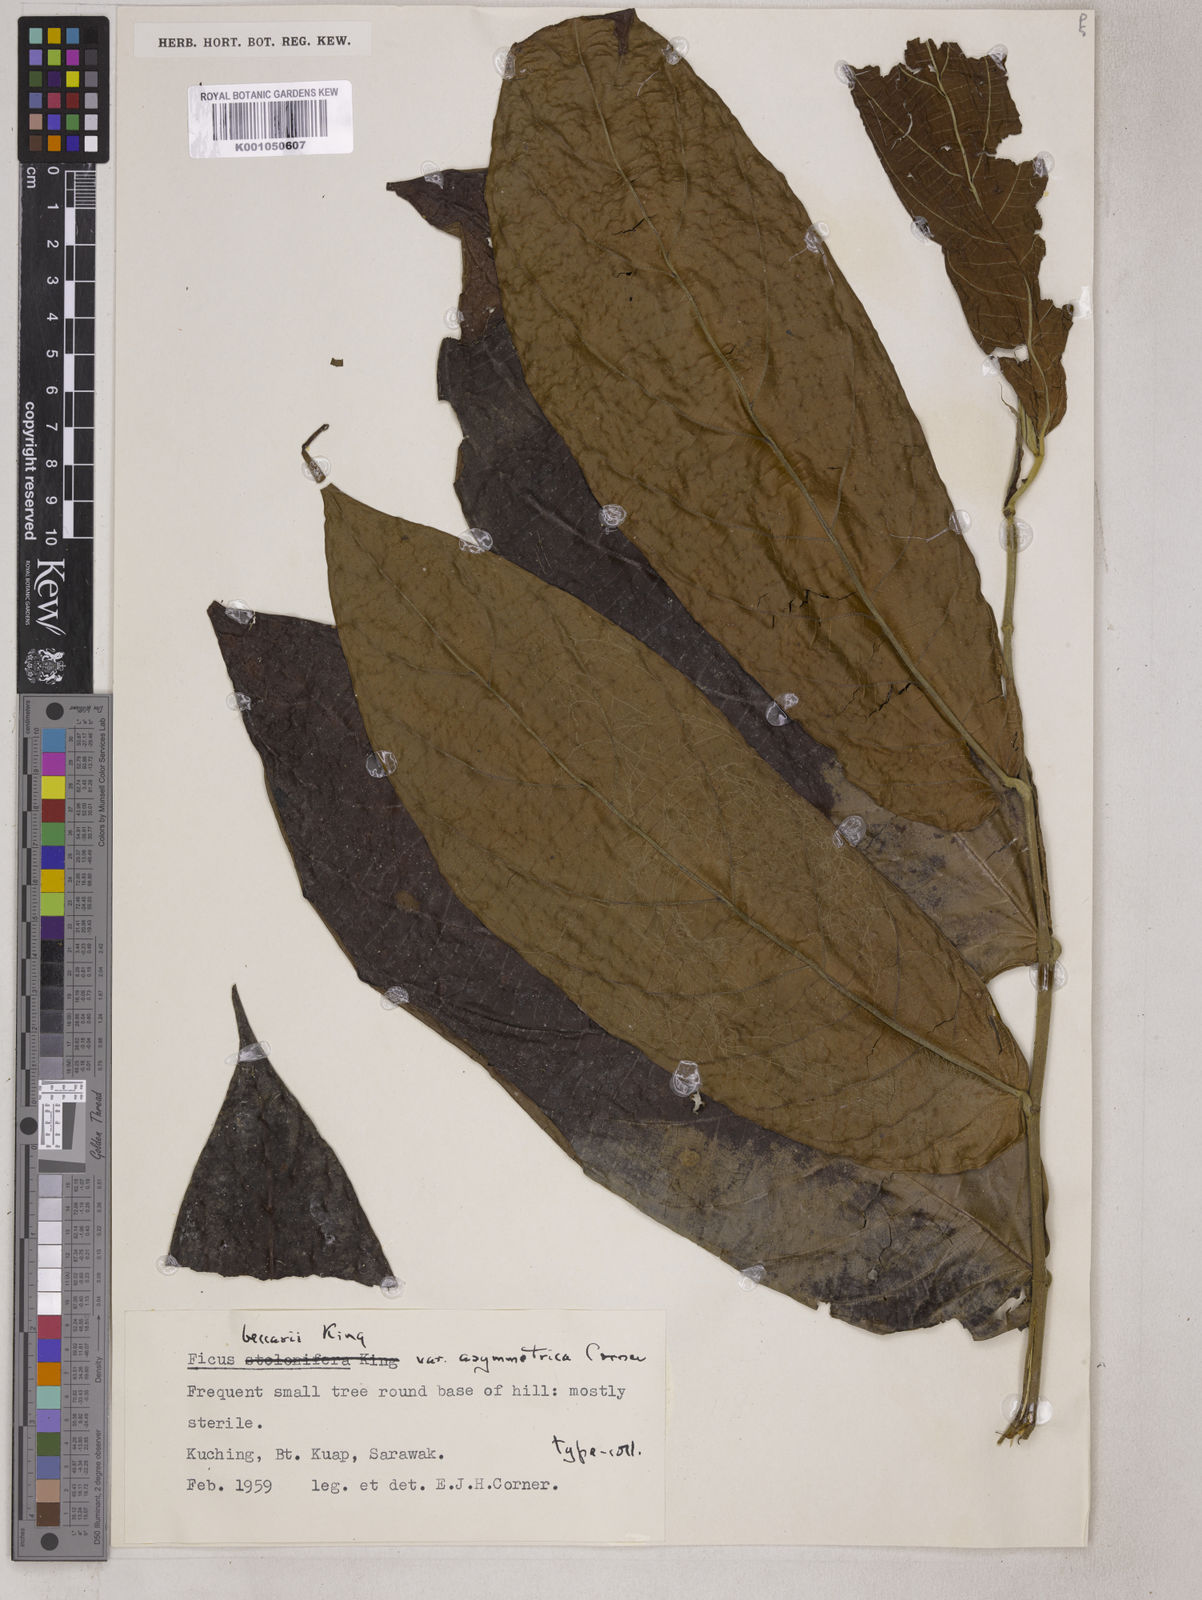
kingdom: Plantae
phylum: Tracheophyta
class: Magnoliopsida
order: Rosales
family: Moraceae
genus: Ficus
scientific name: Ficus beccarii
